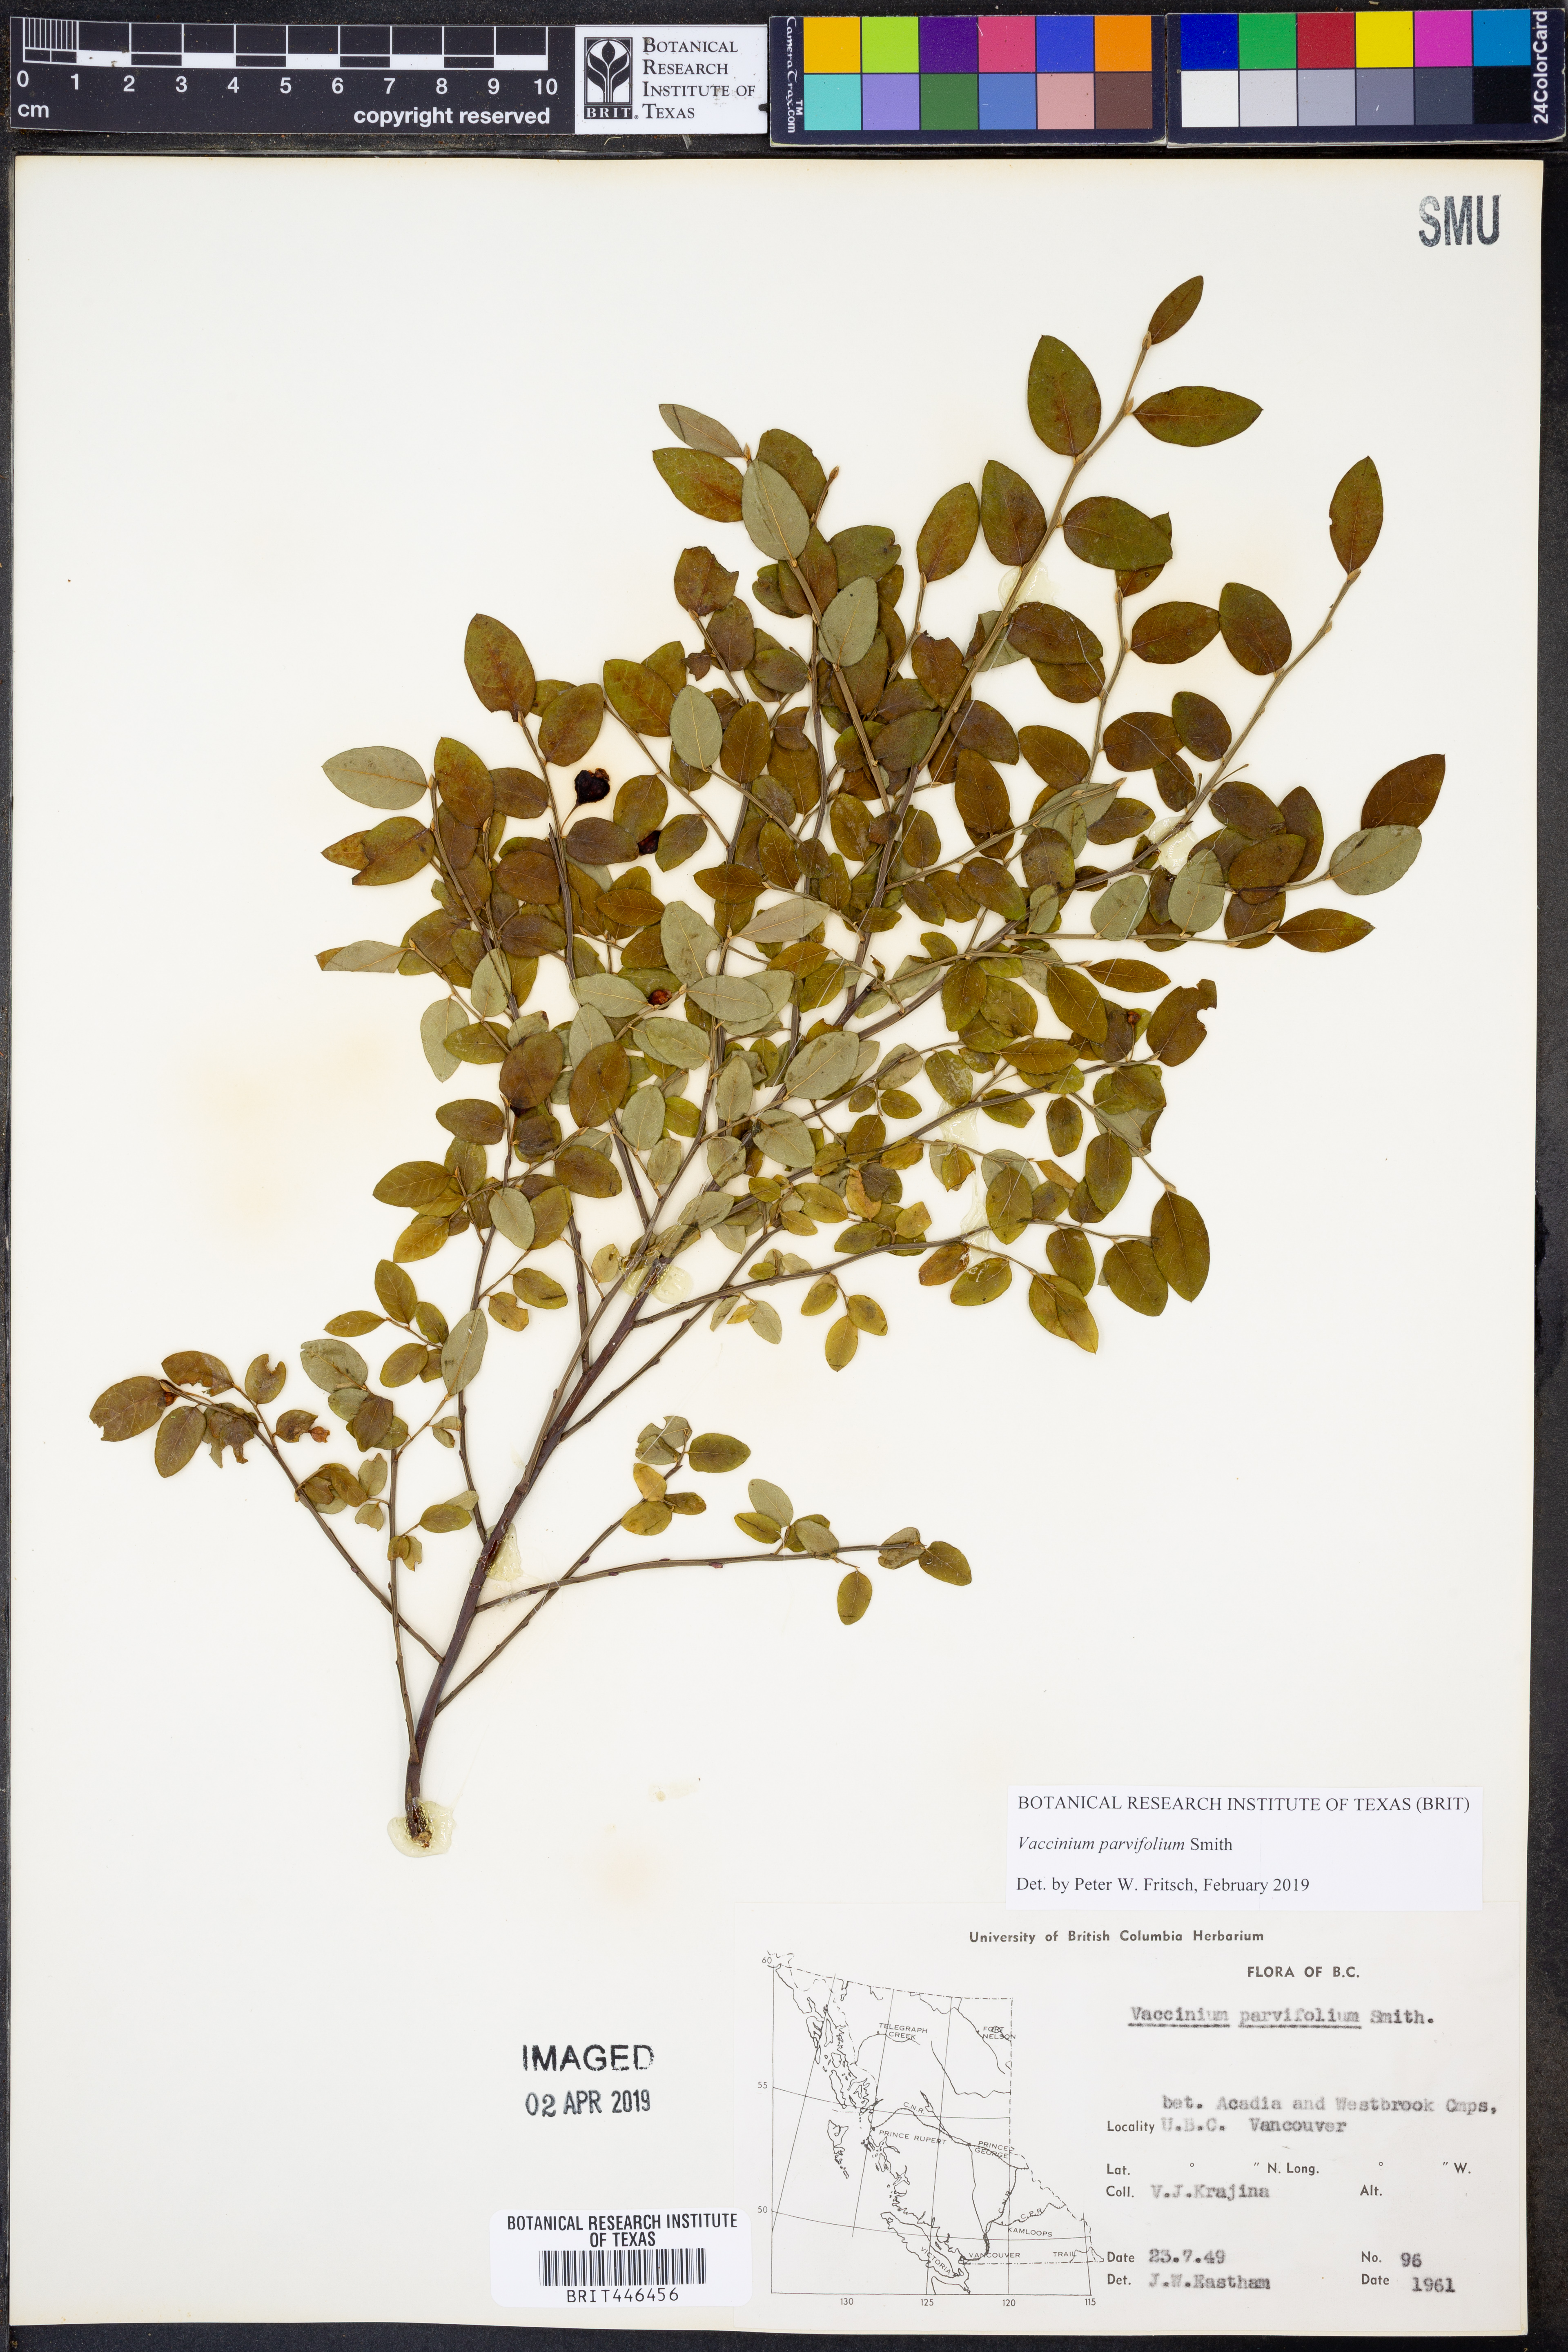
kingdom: Plantae
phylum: Tracheophyta
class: Magnoliopsida
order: Ericales
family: Ericaceae
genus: Vaccinium
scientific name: Vaccinium parvifolium
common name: Red-huckleberry
